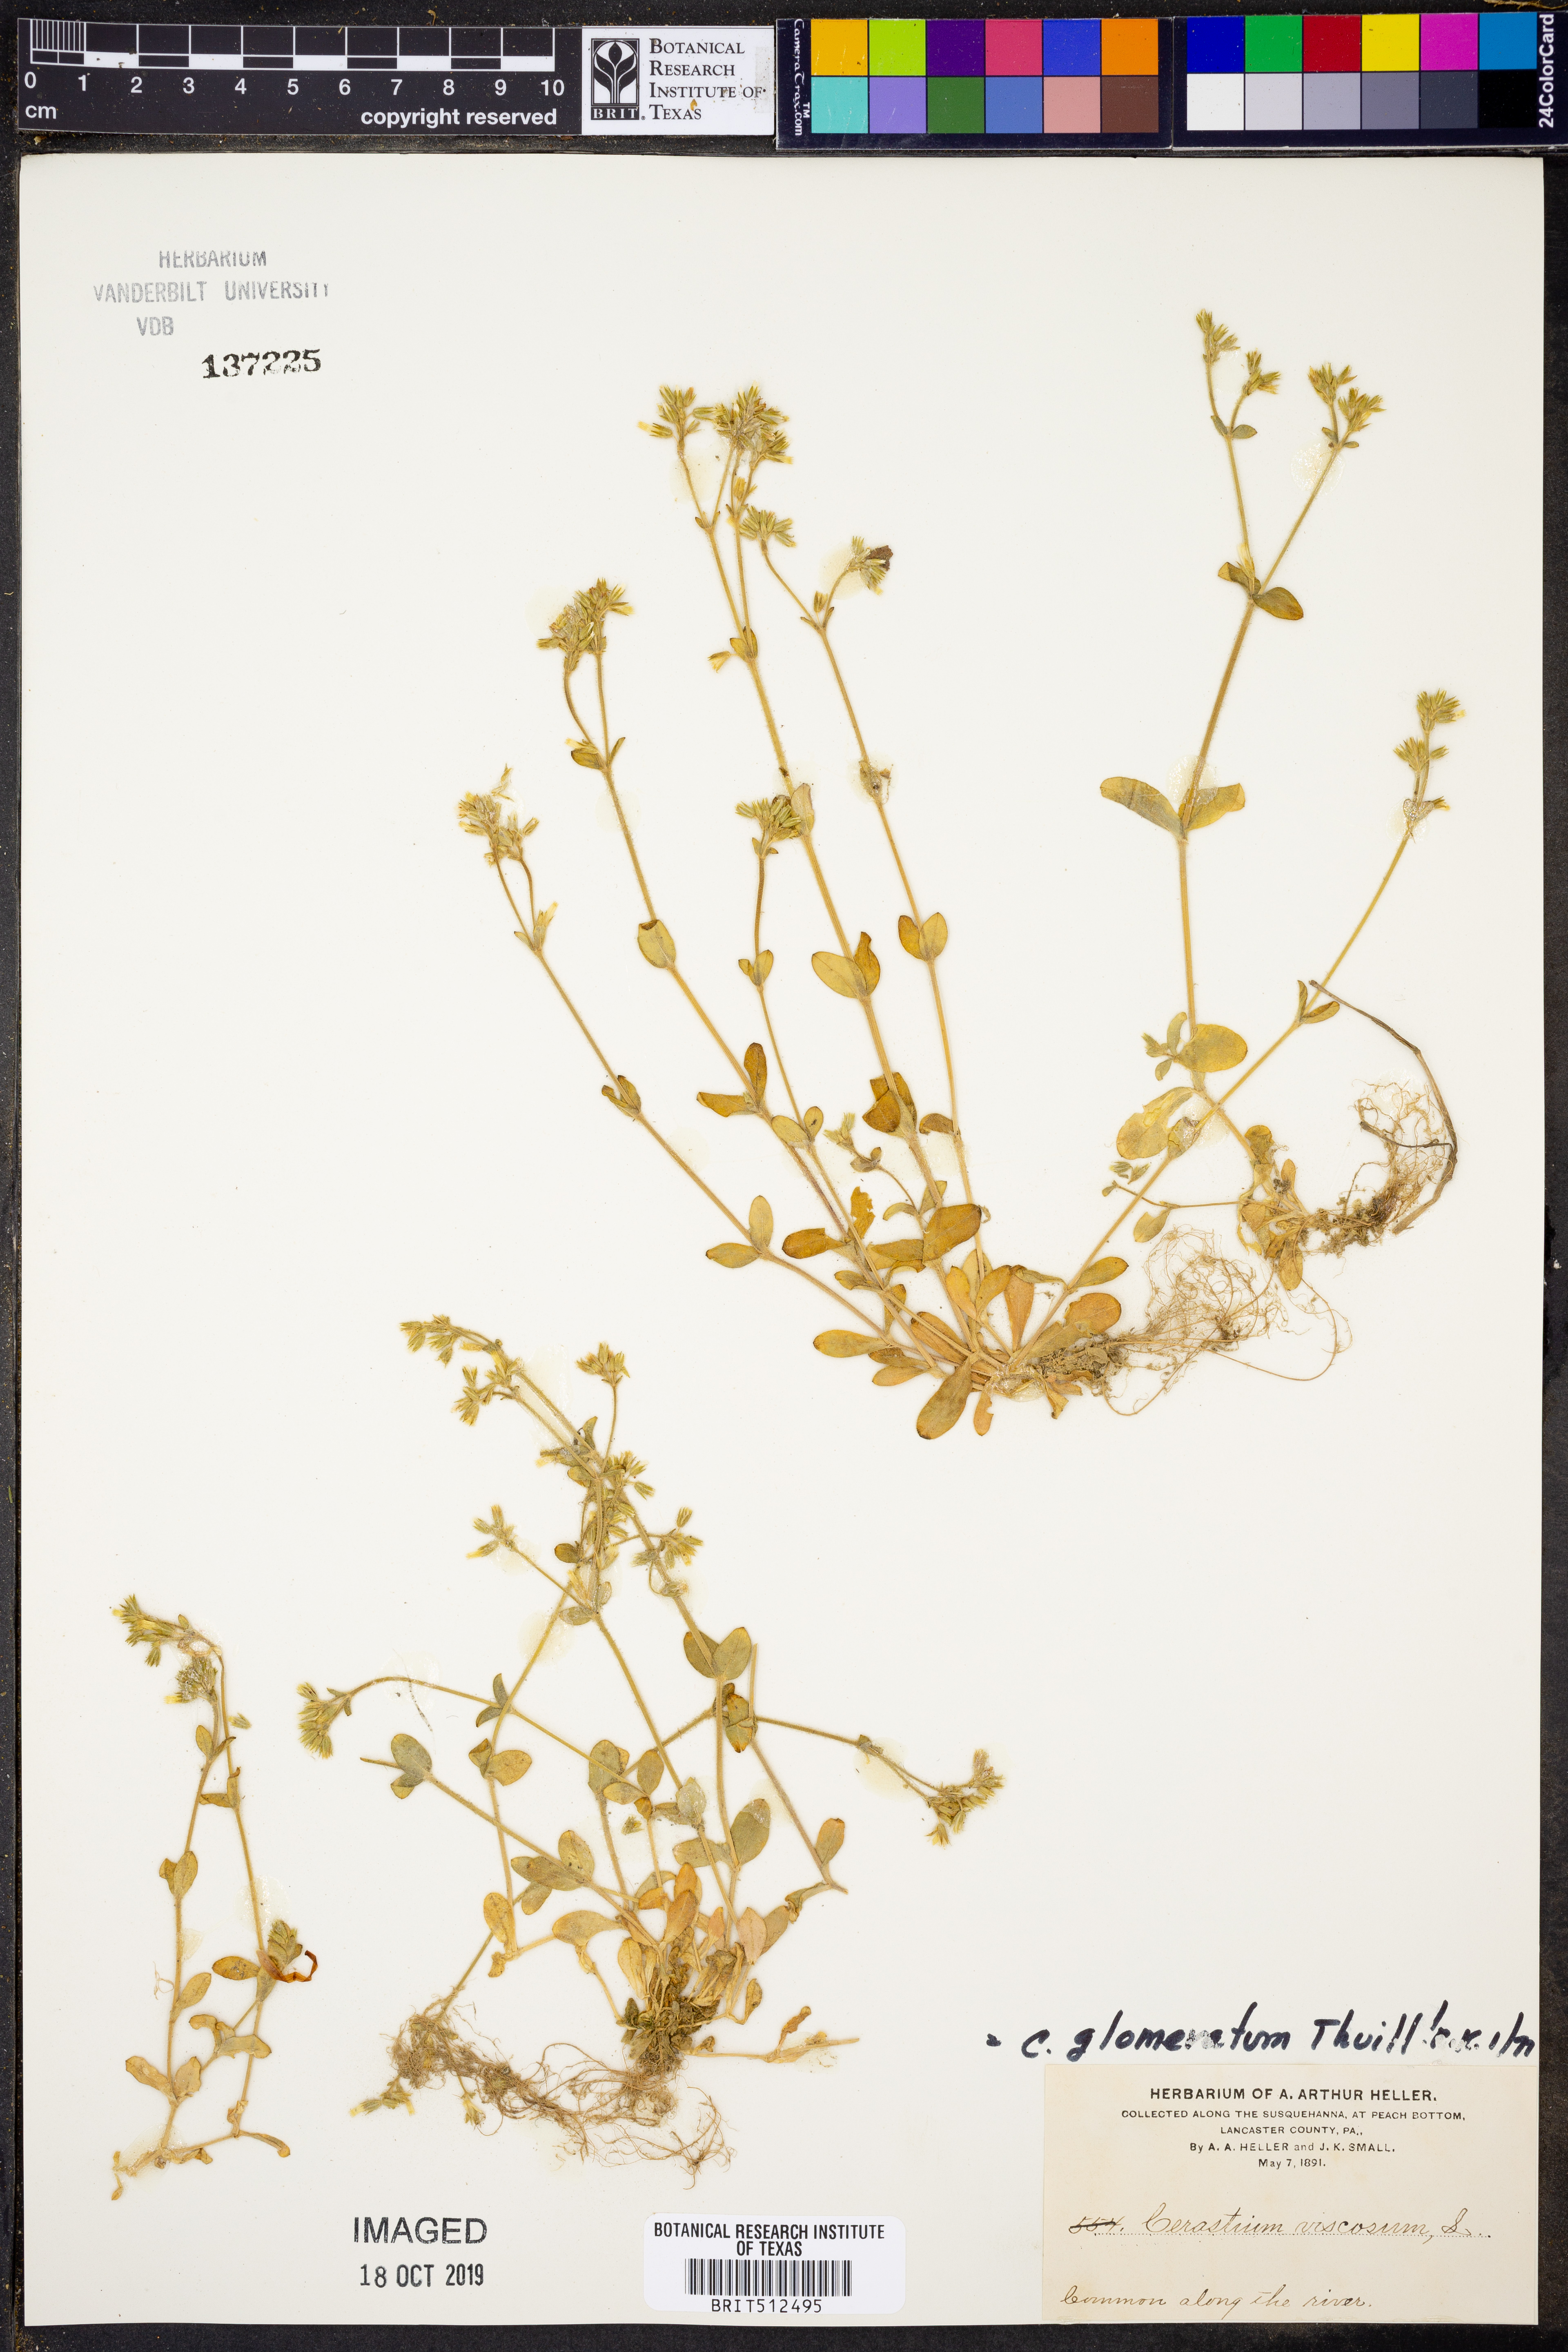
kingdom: Plantae
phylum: Tracheophyta
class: Magnoliopsida
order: Caryophyllales
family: Caryophyllaceae
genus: Cerastium
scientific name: Cerastium glomeratum
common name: Sticky chickweed
